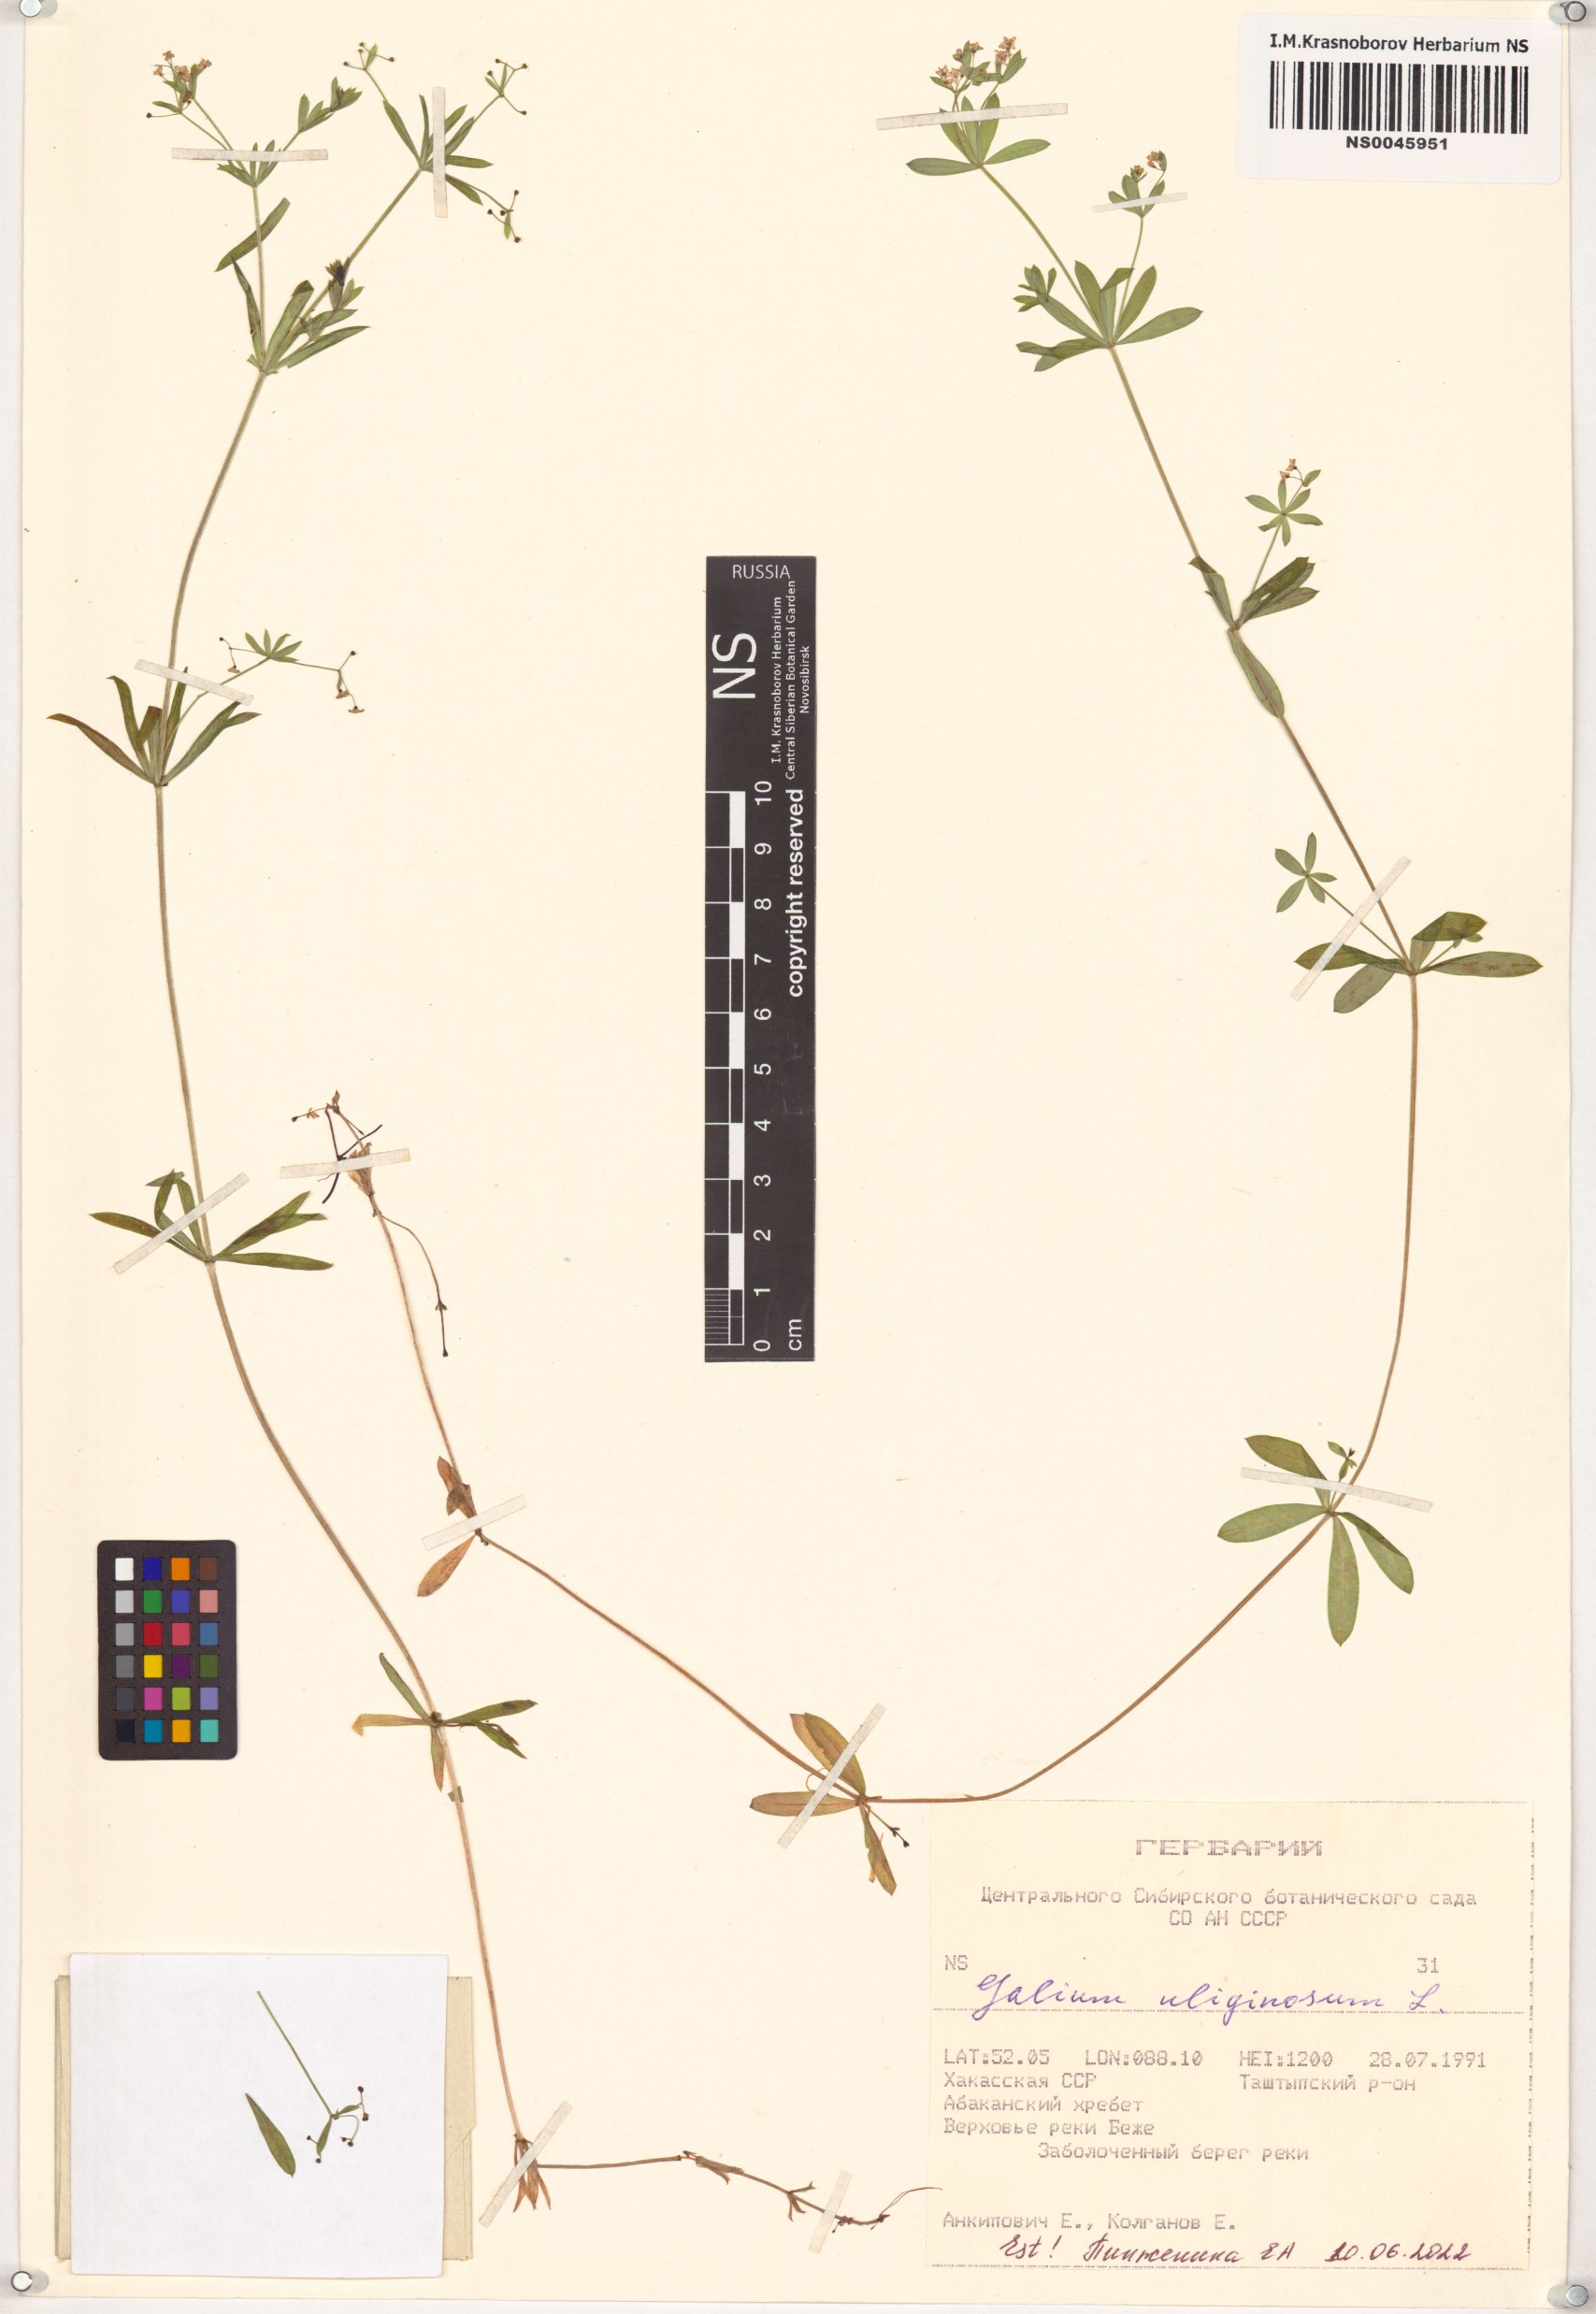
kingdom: Plantae
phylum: Tracheophyta
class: Magnoliopsida
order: Gentianales
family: Rubiaceae
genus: Galium
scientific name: Galium uliginosum
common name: Fen bedstraw
